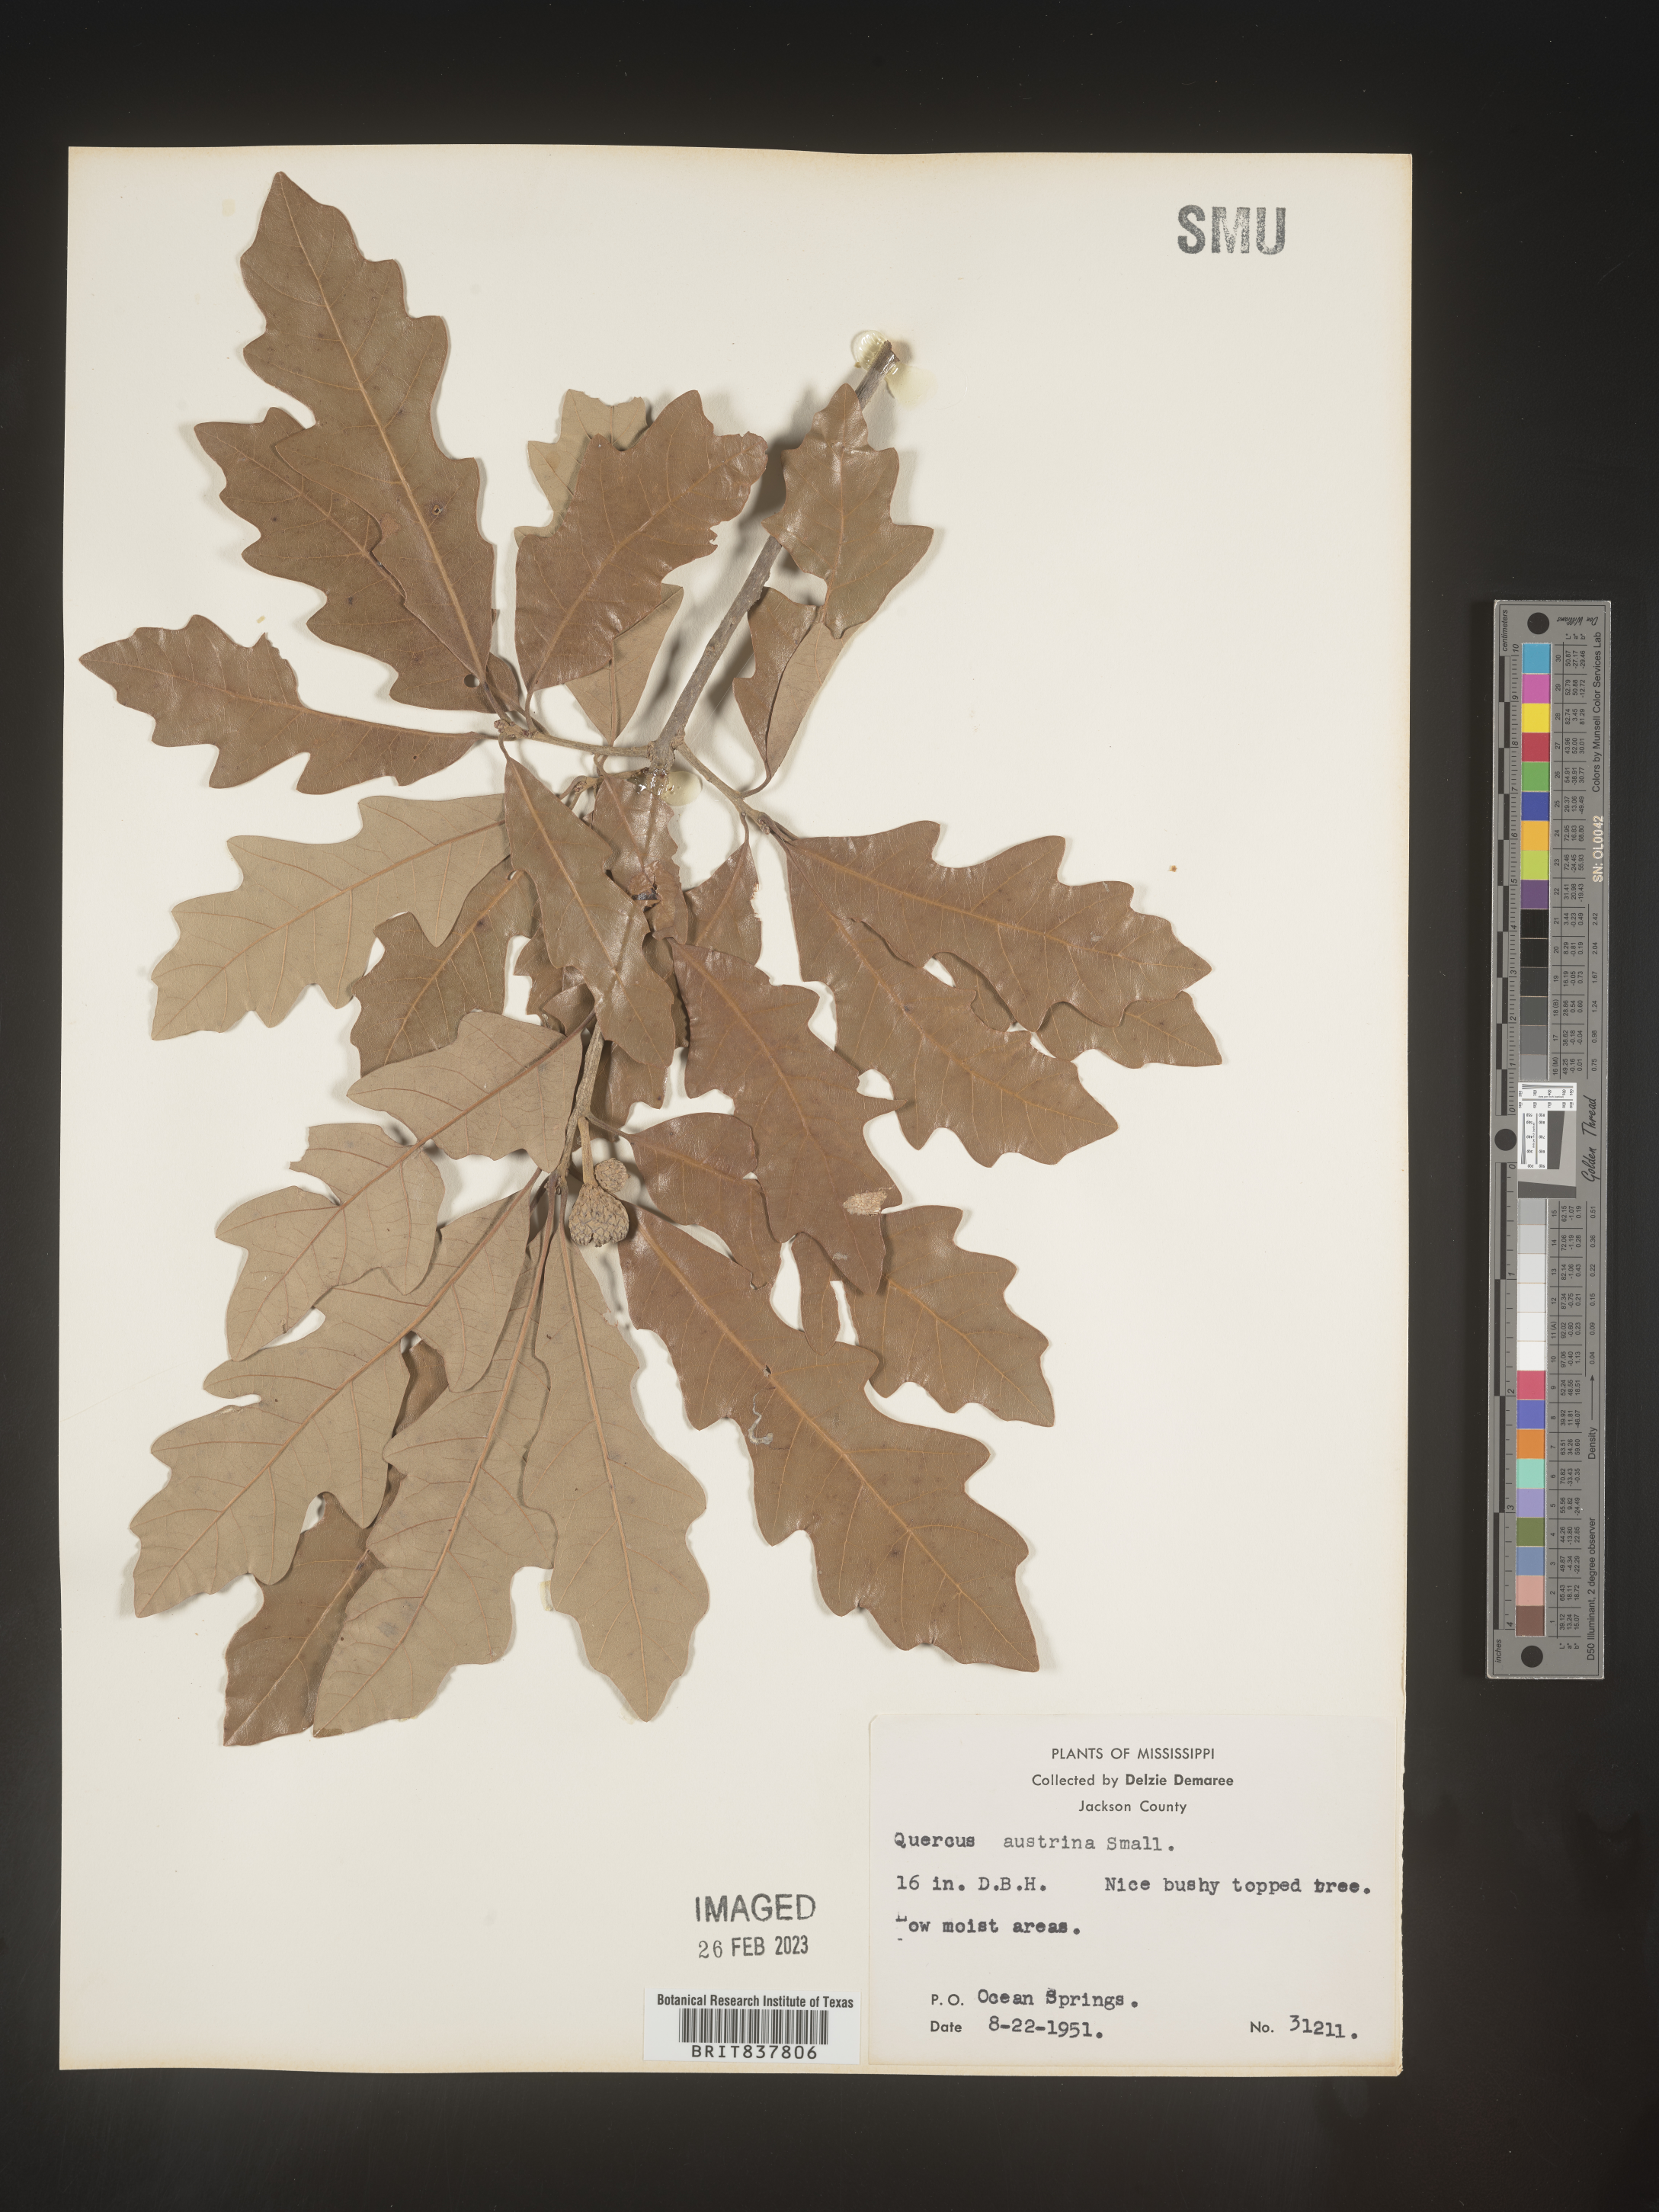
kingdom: Plantae
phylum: Tracheophyta
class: Magnoliopsida
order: Fagales
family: Fagaceae
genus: Quercus
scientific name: Quercus austrina
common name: Bastard white oak
